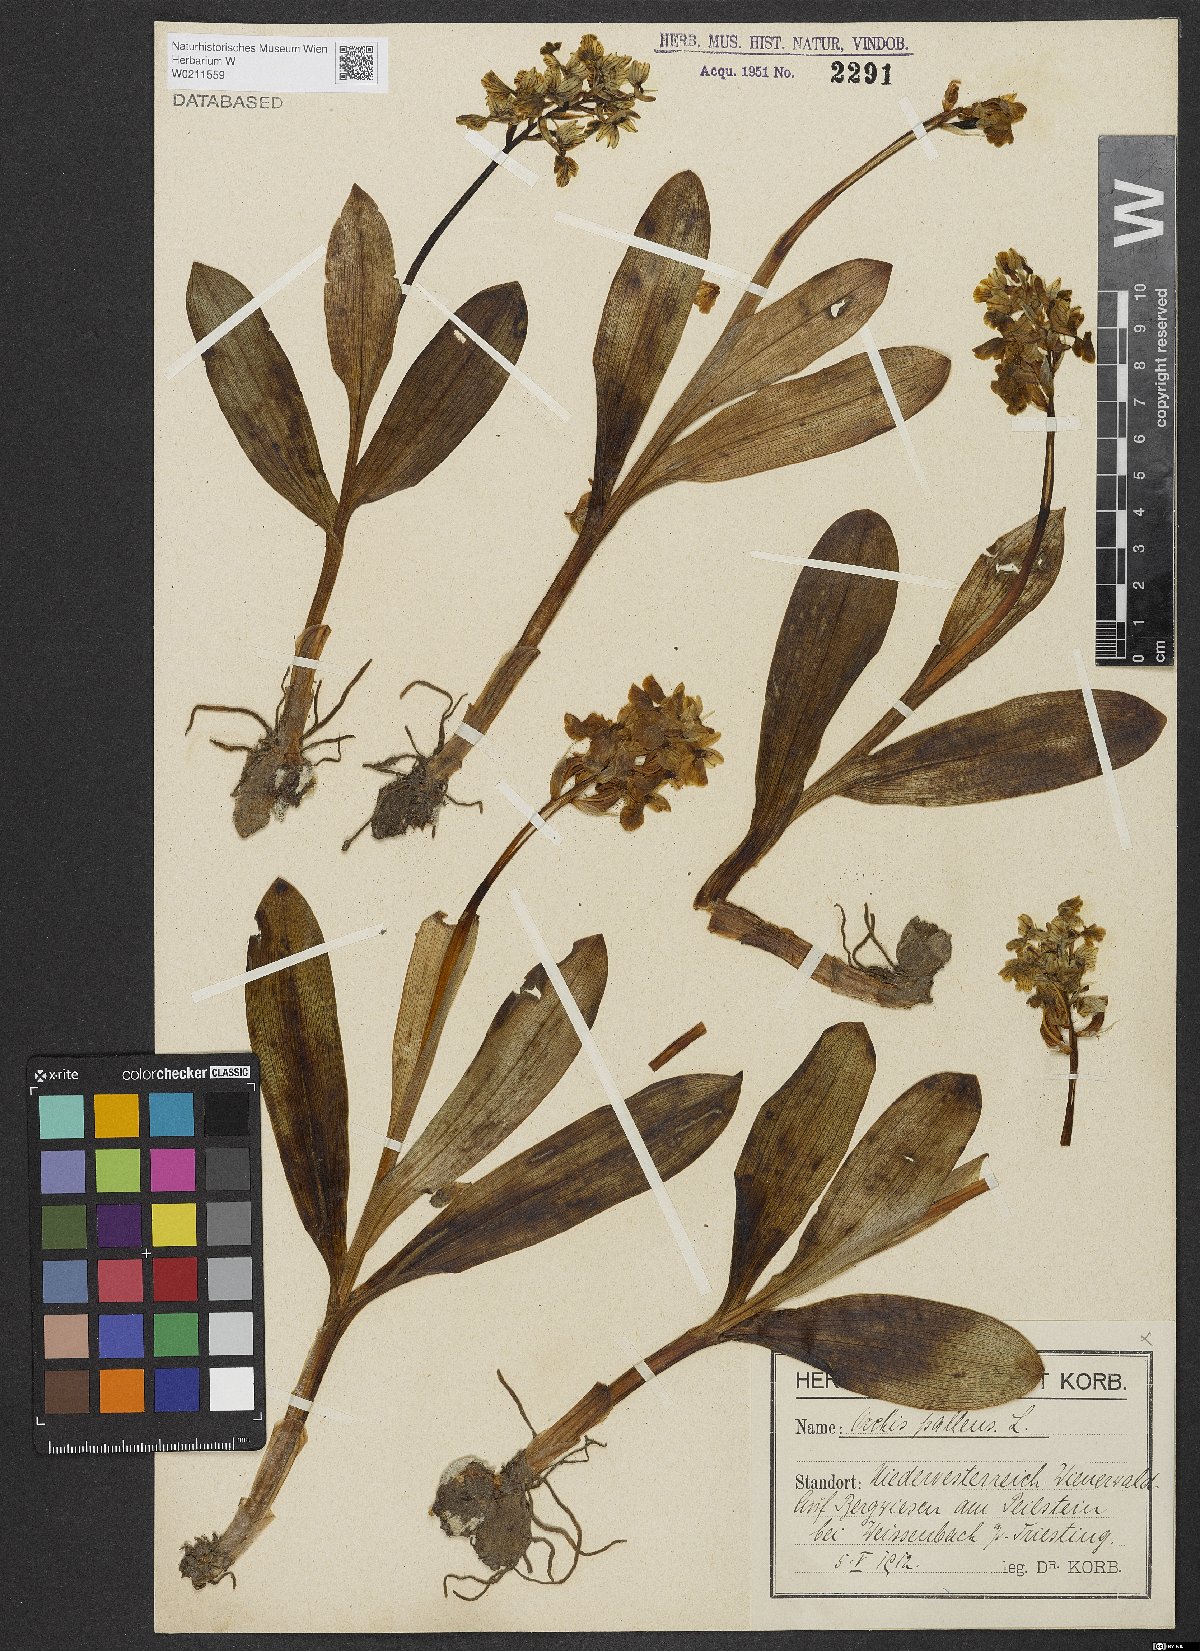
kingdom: Plantae
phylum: Tracheophyta
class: Liliopsida
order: Asparagales
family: Orchidaceae
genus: Orchis
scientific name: Orchis pallens
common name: Pale-flowered orchid
